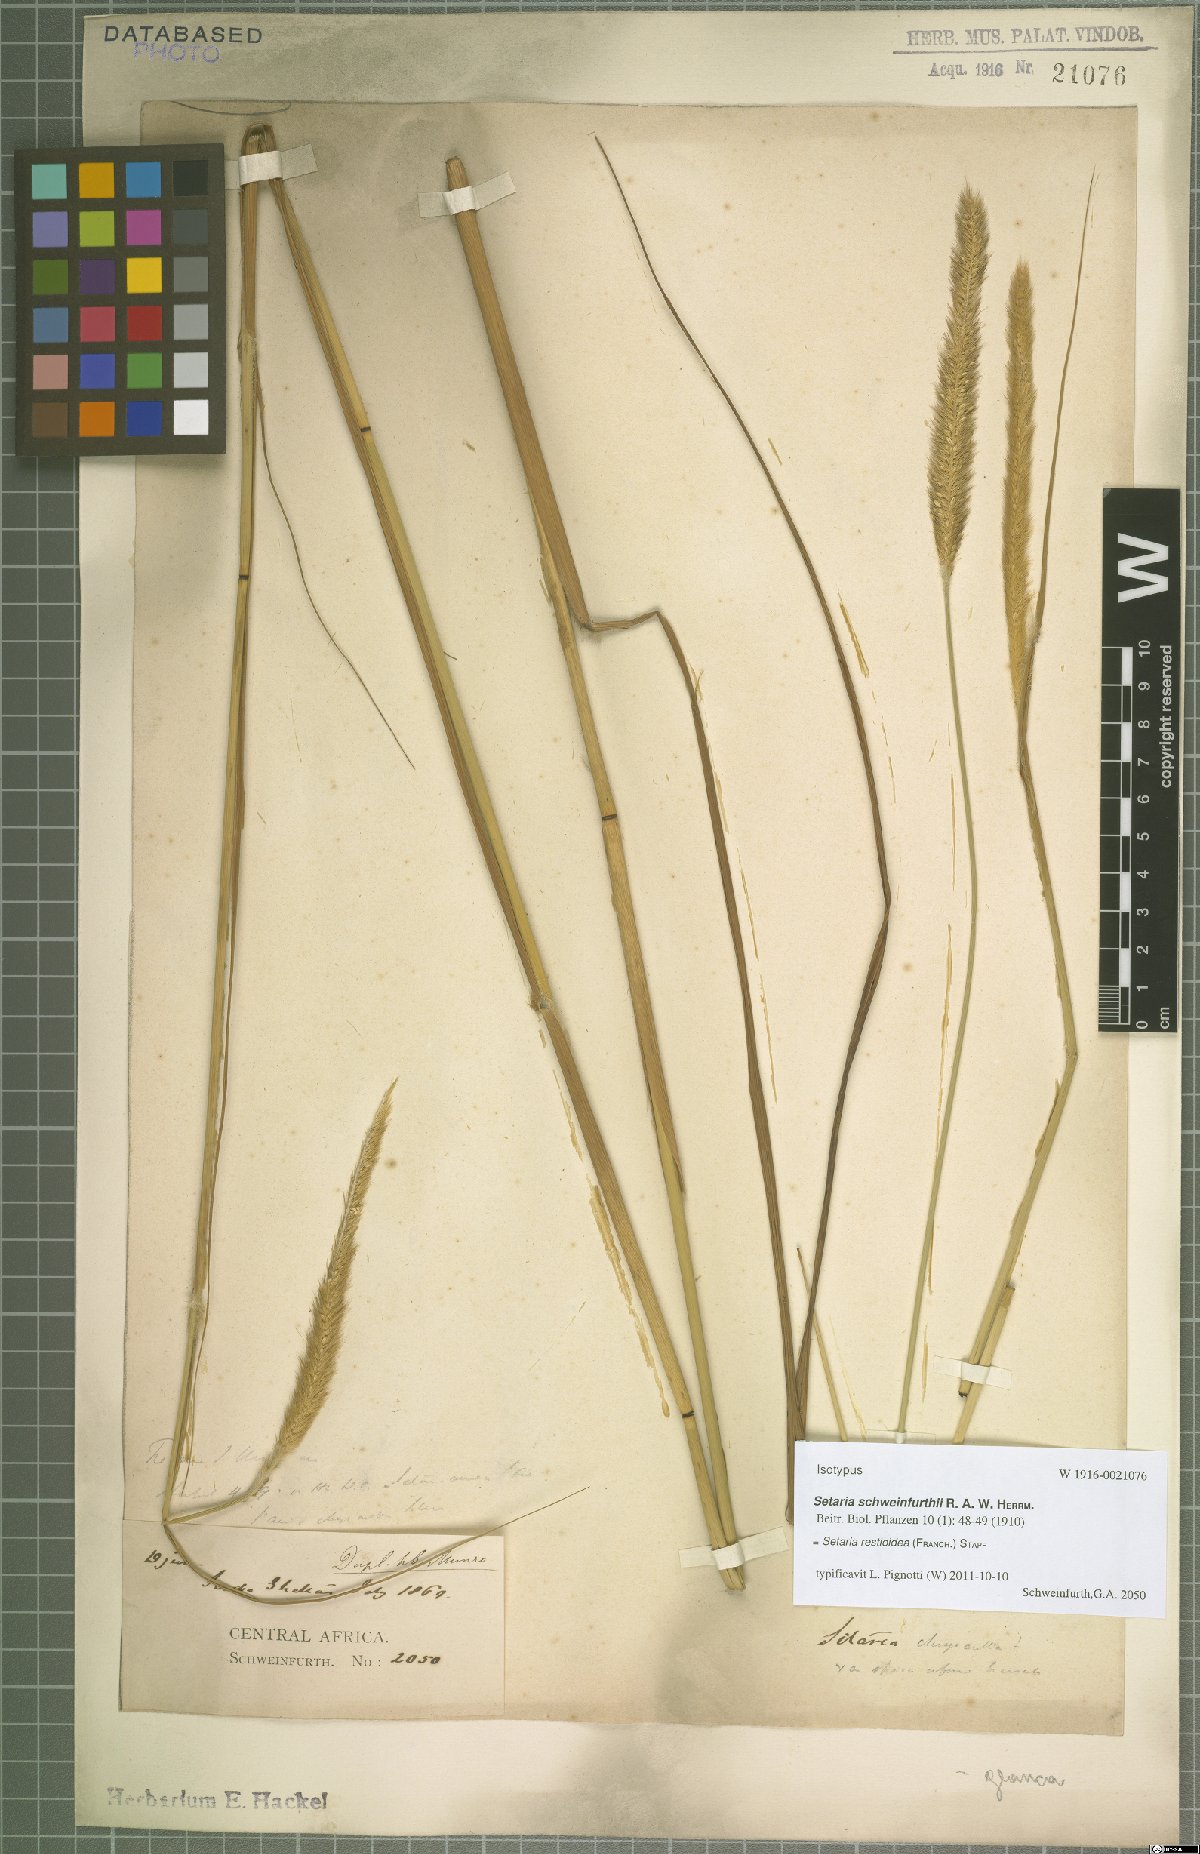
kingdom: Plantae
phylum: Tracheophyta
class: Liliopsida
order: Poales
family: Poaceae
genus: Setaria
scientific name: Setaria restioidea
